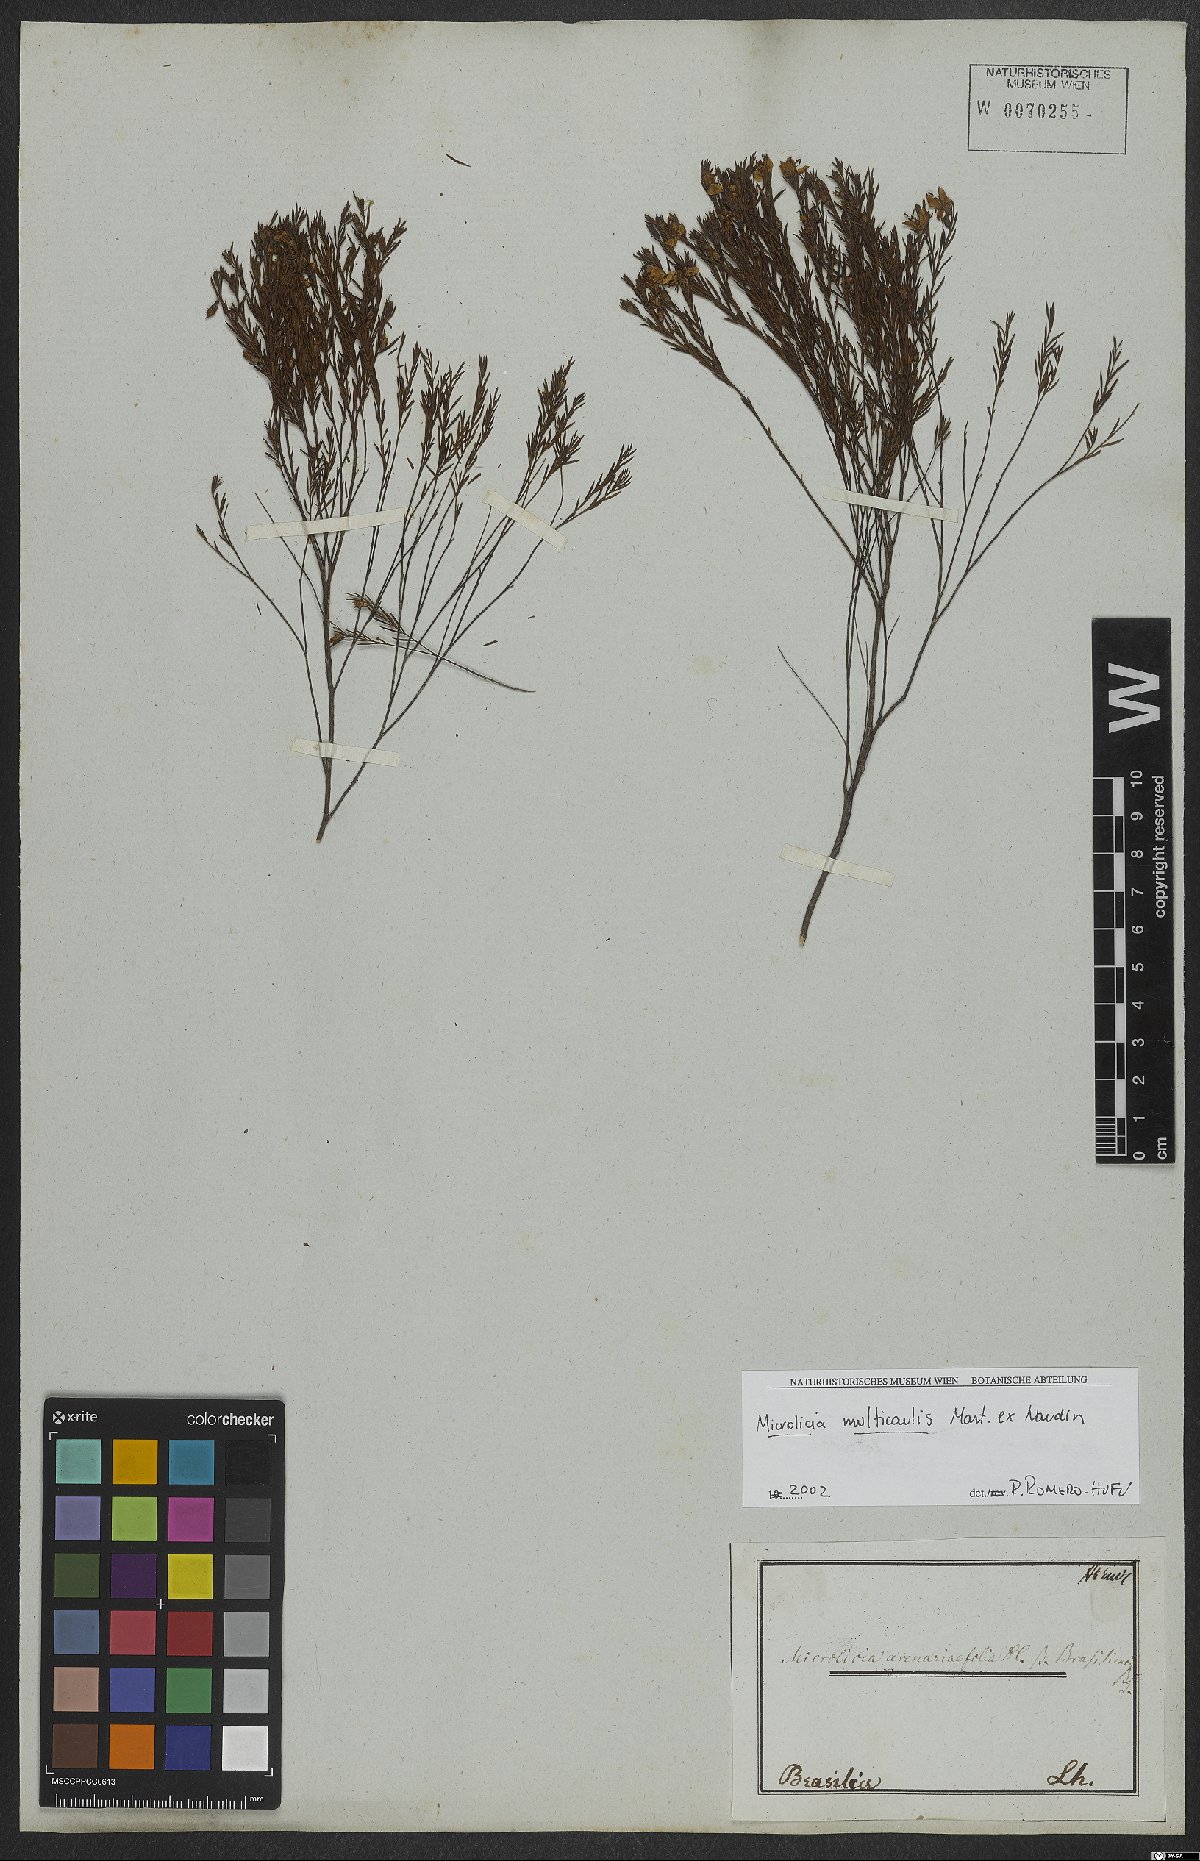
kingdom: Plantae
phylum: Tracheophyta
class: Magnoliopsida
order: Myrtales
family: Melastomataceae
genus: Microlicia
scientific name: Microlicia multicaulis
